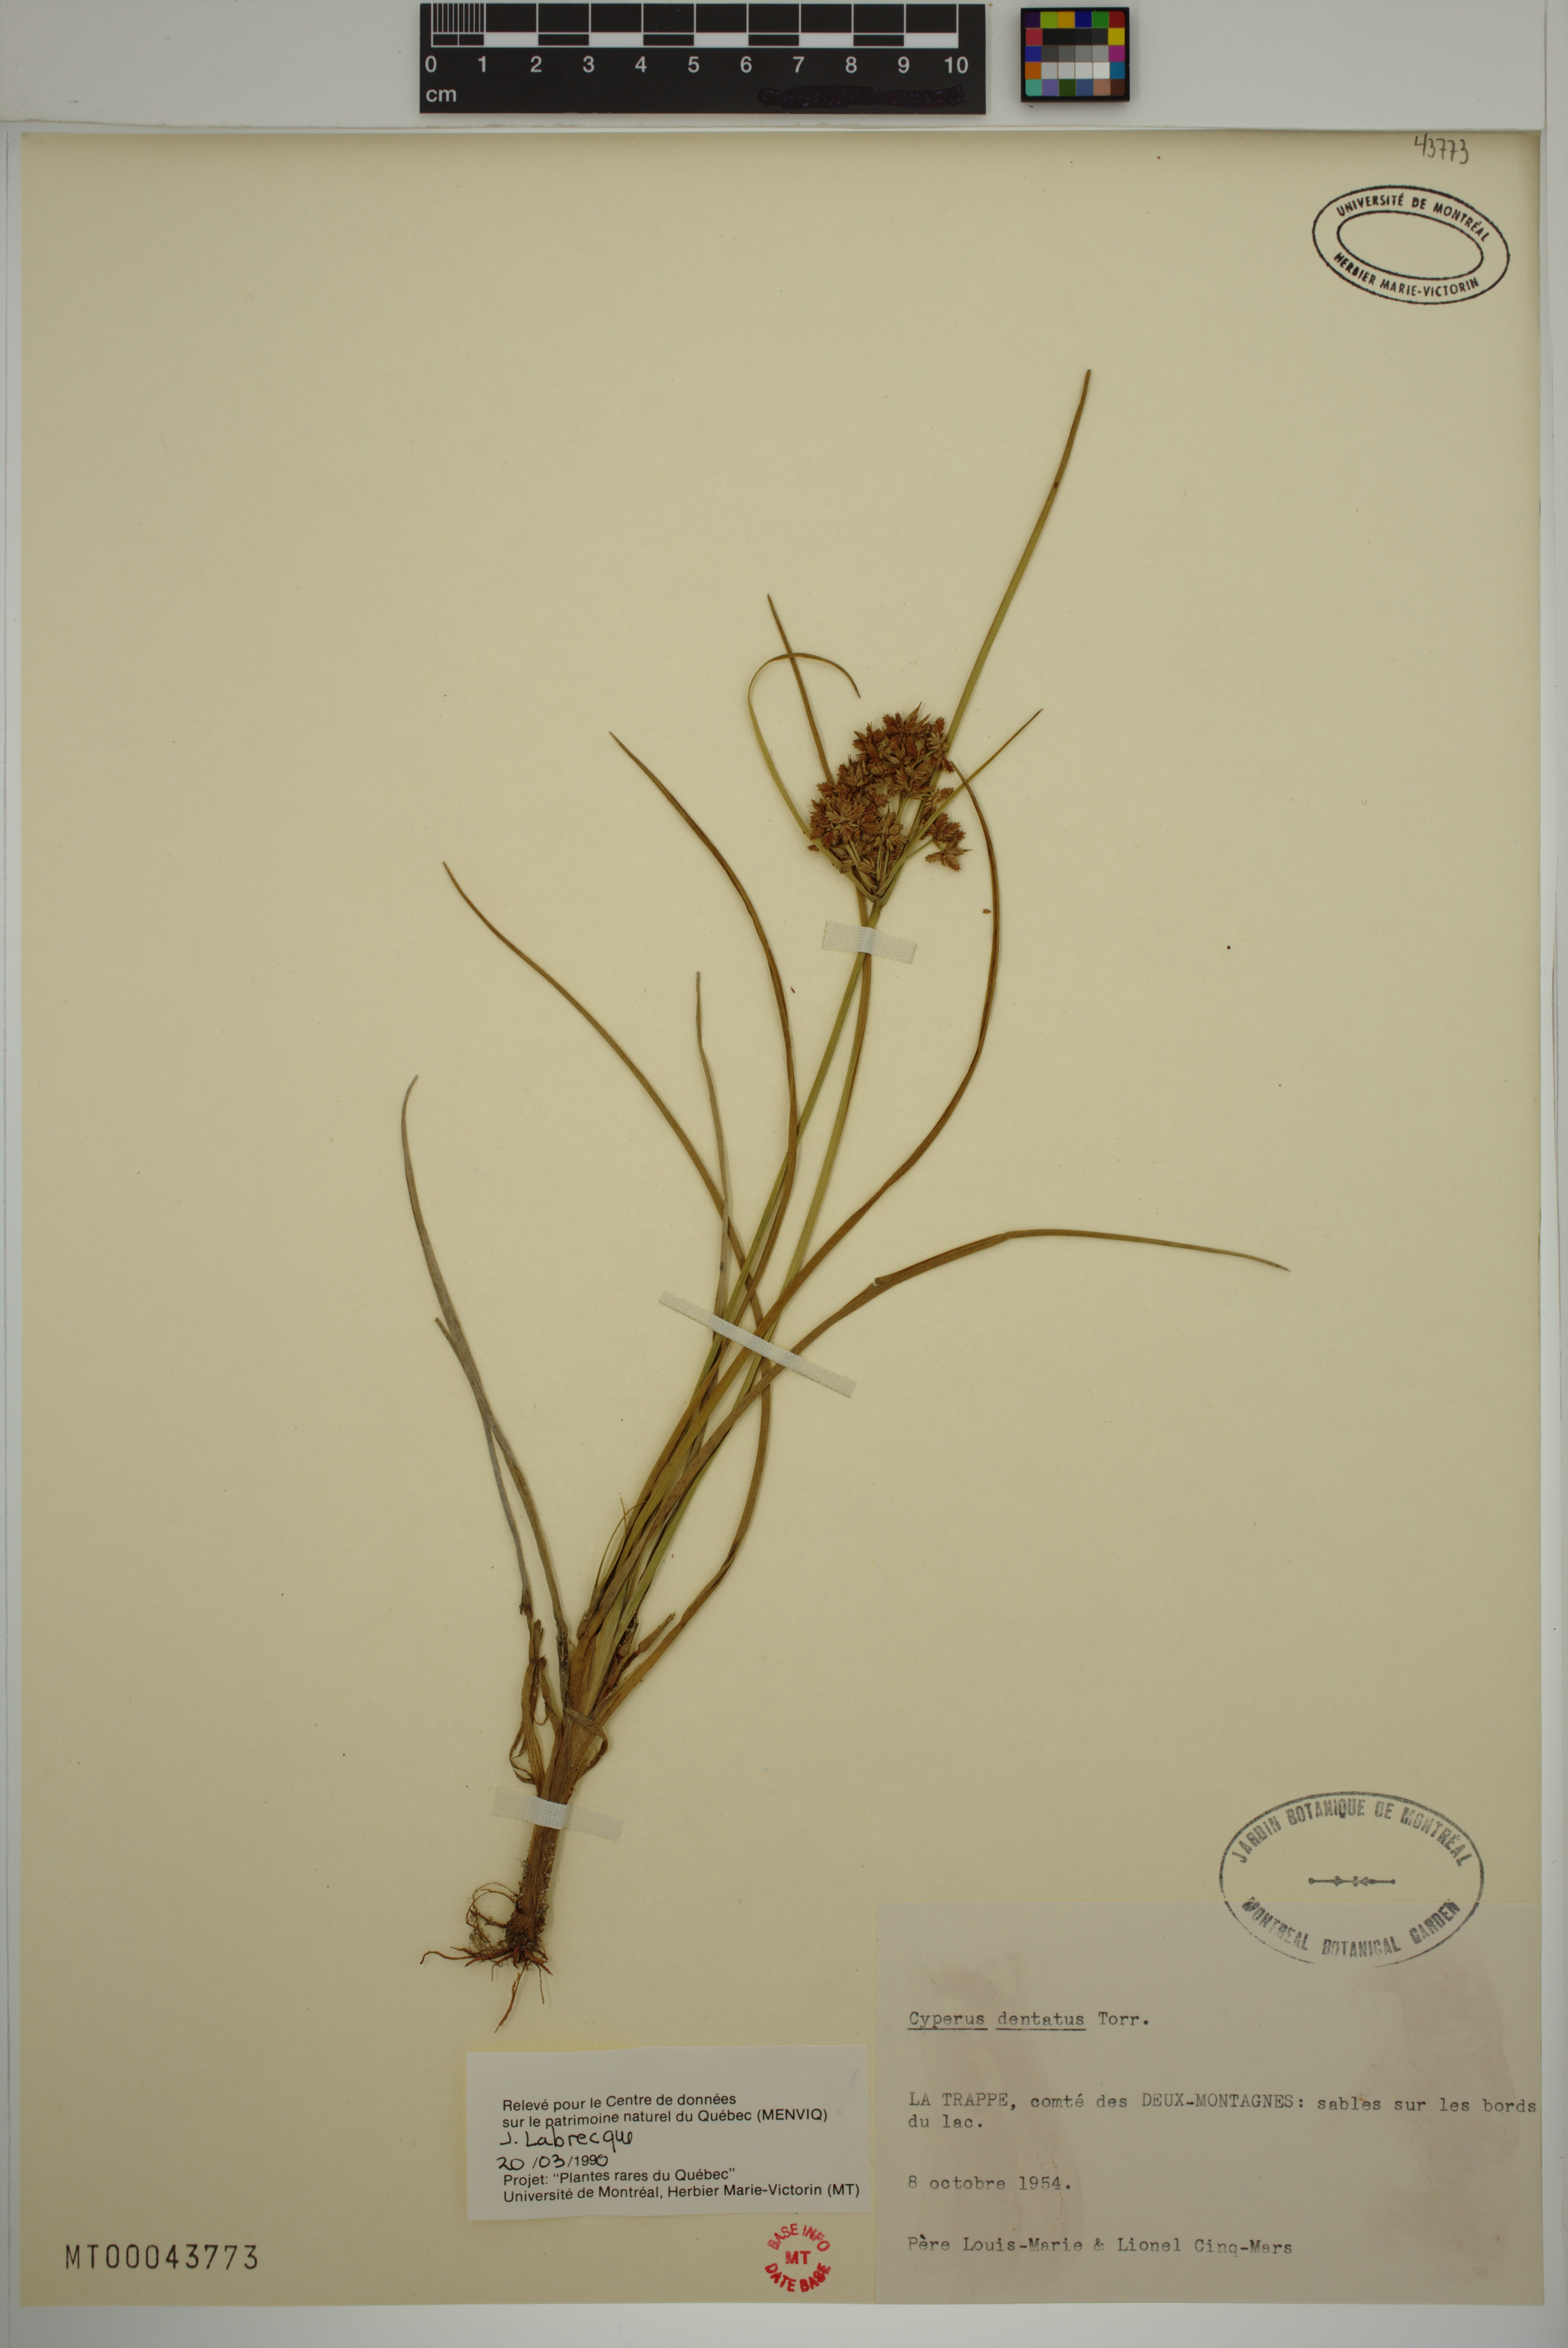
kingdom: Plantae
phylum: Tracheophyta
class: Liliopsida
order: Poales
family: Cyperaceae
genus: Cyperus
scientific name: Cyperus dentatus
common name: Dentate umbrella sedge
